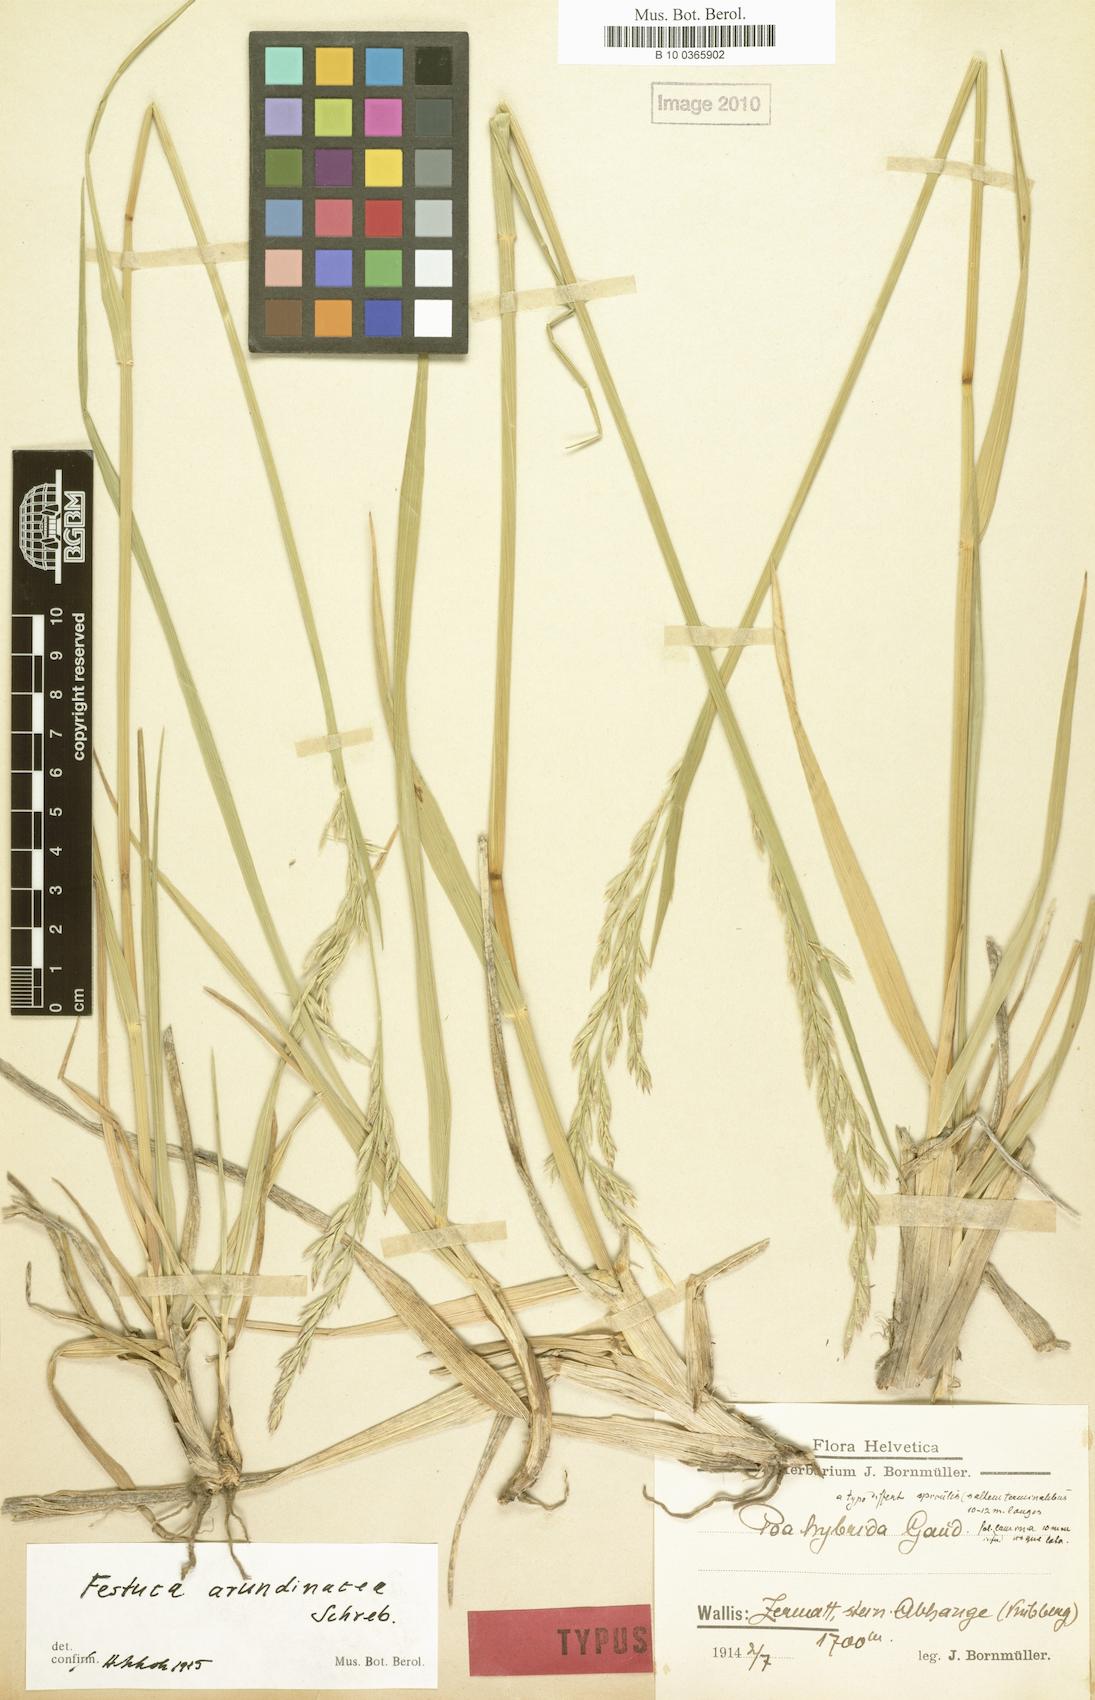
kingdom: Plantae
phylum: Tracheophyta
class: Liliopsida
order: Poales
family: Poaceae
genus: Lolium
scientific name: Lolium arundinaceum
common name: Reed fescue
